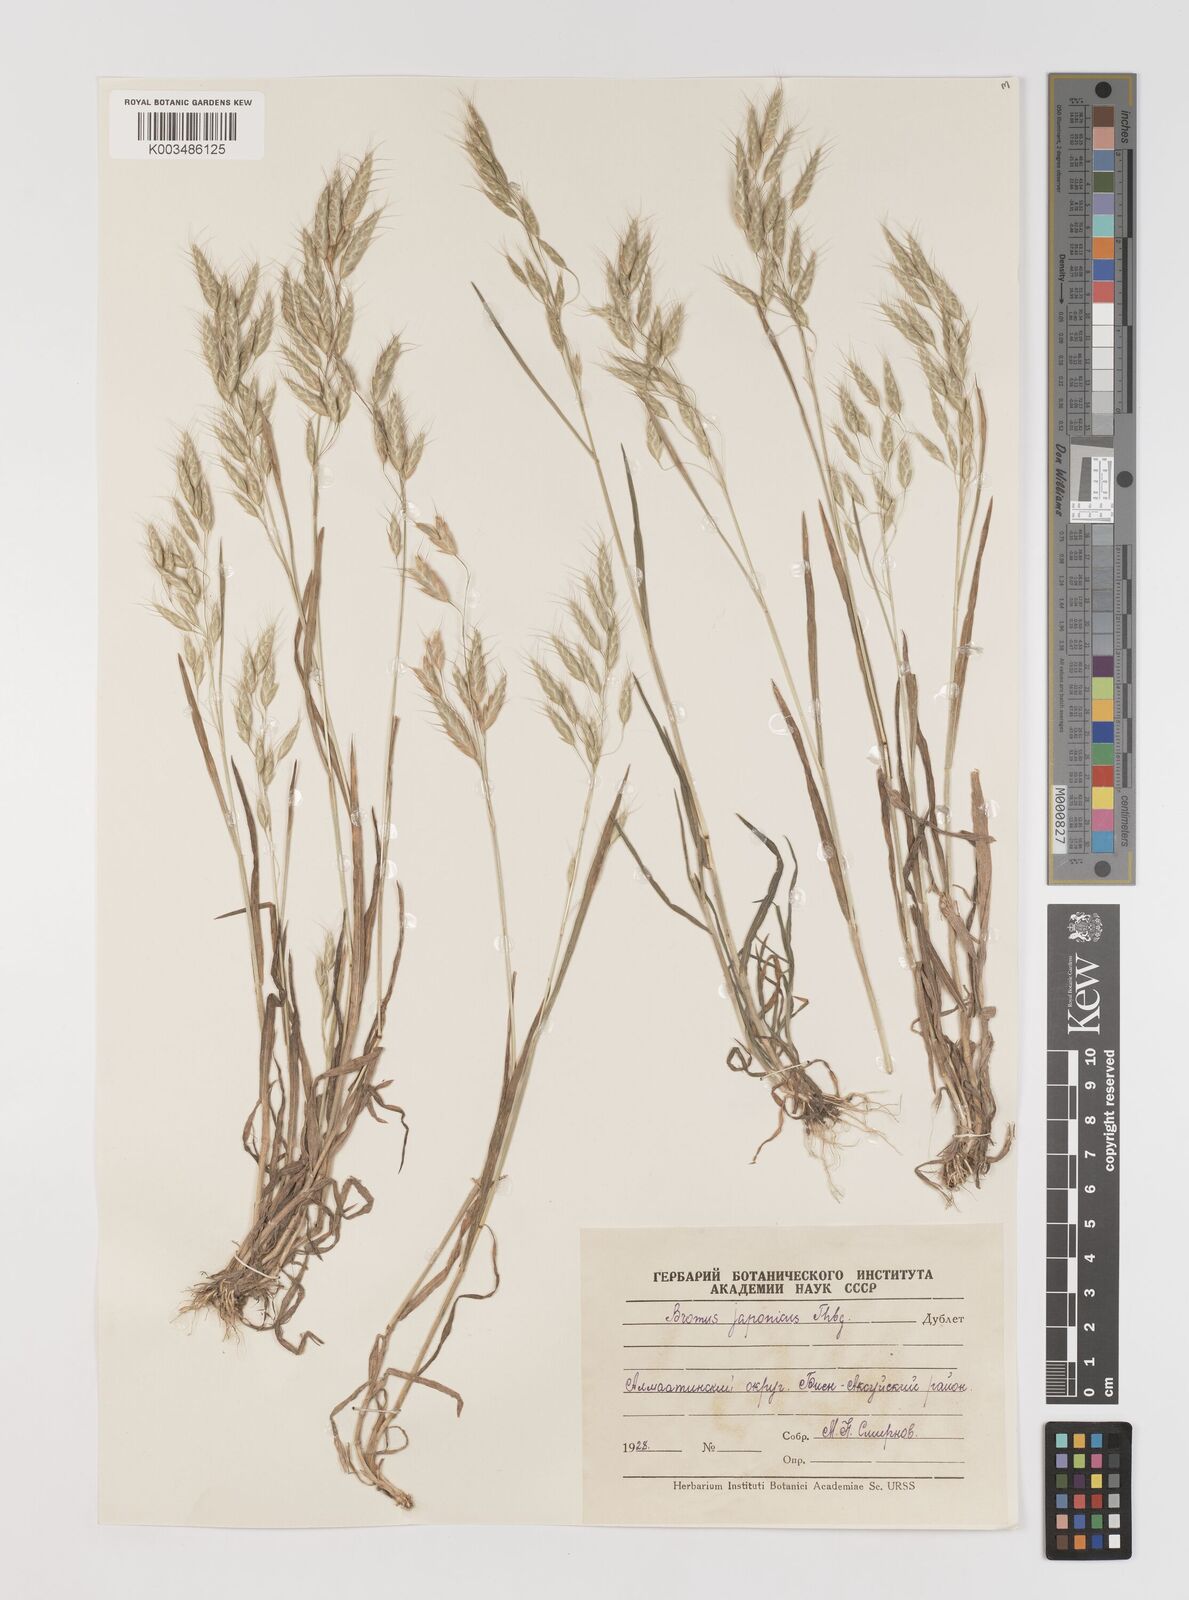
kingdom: Plantae
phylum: Tracheophyta
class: Liliopsida
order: Poales
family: Poaceae
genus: Bromus
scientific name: Bromus japonicus
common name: Japanese brome
